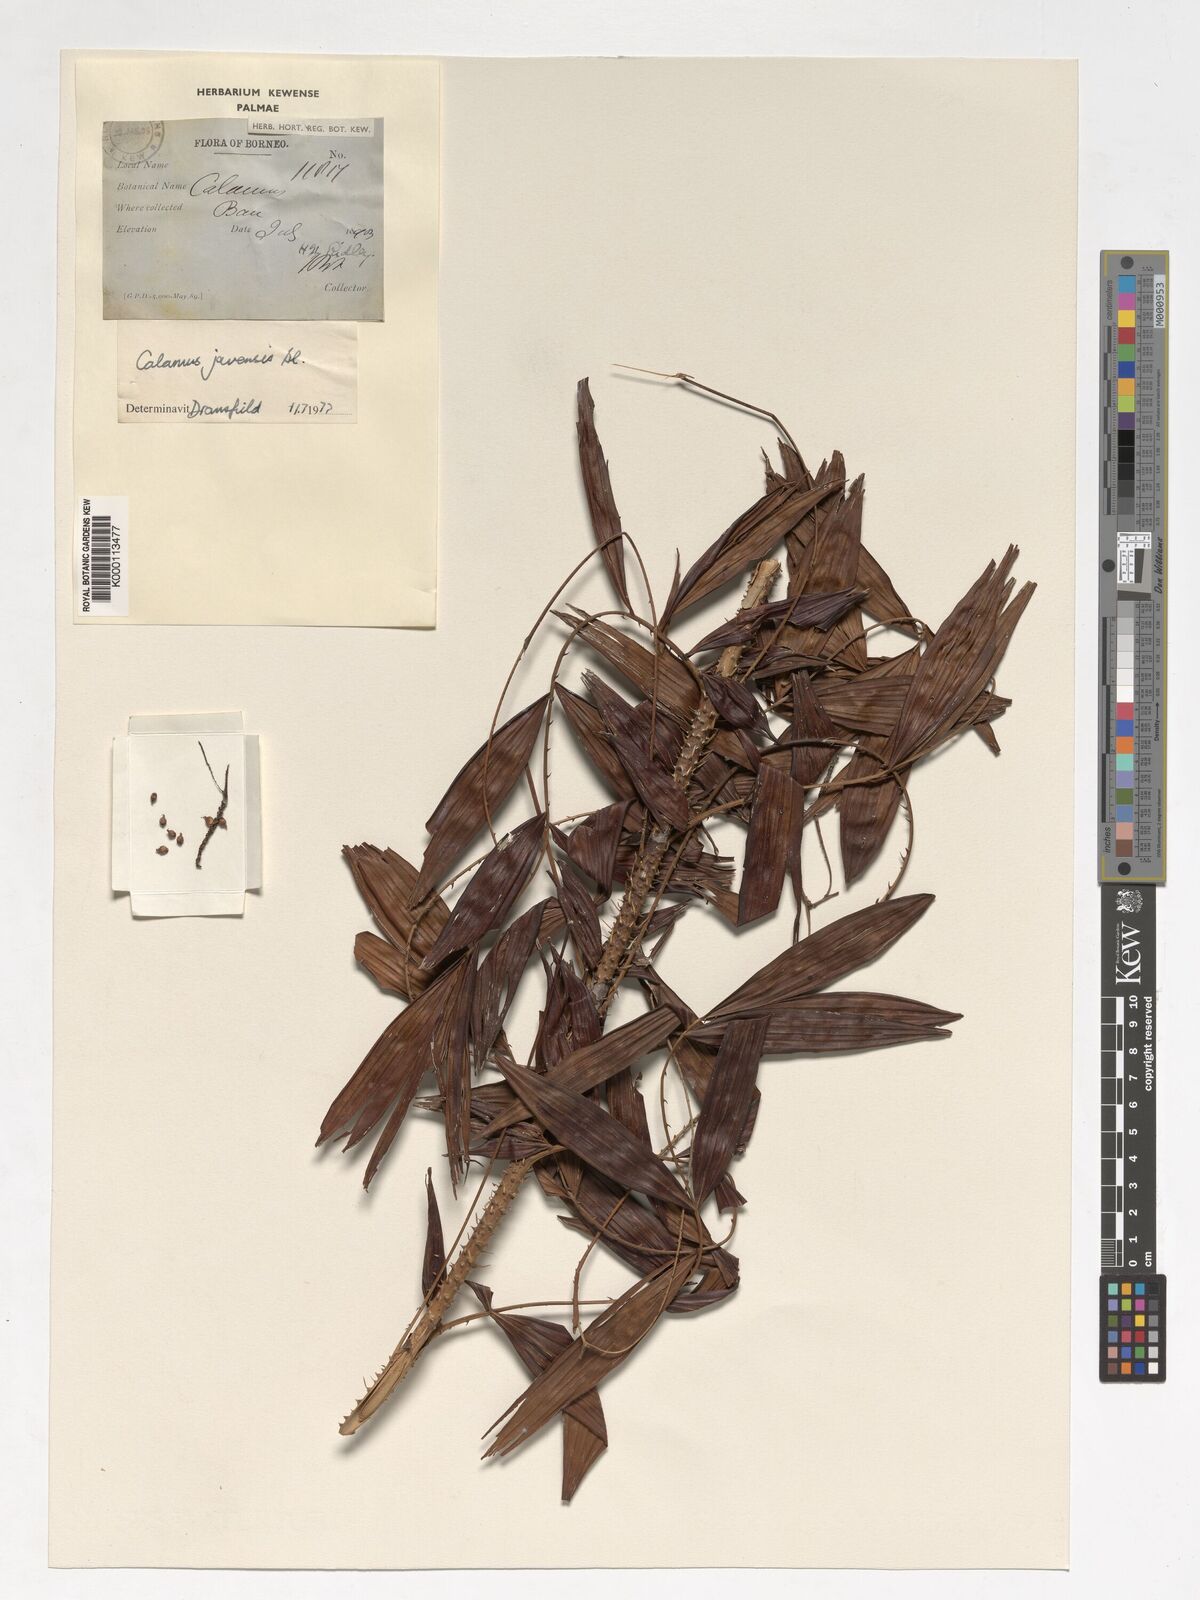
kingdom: Plantae
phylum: Tracheophyta
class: Liliopsida
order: Arecales
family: Arecaceae
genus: Calamus
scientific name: Calamus javensis
